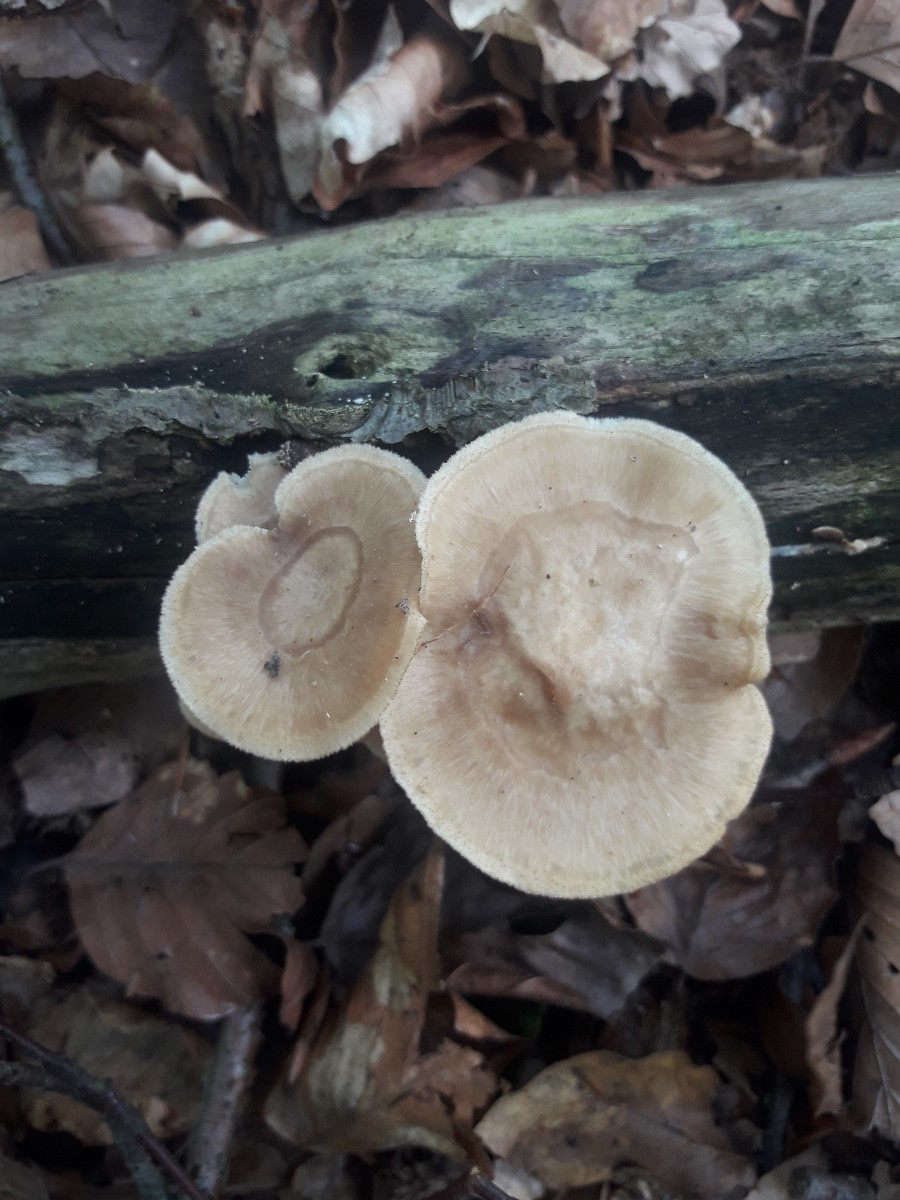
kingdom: Fungi
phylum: Basidiomycota
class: Agaricomycetes
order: Polyporales
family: Polyporaceae
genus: Polyporus
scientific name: Polyporus tuberaster
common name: knoldet stilkporesvamp
